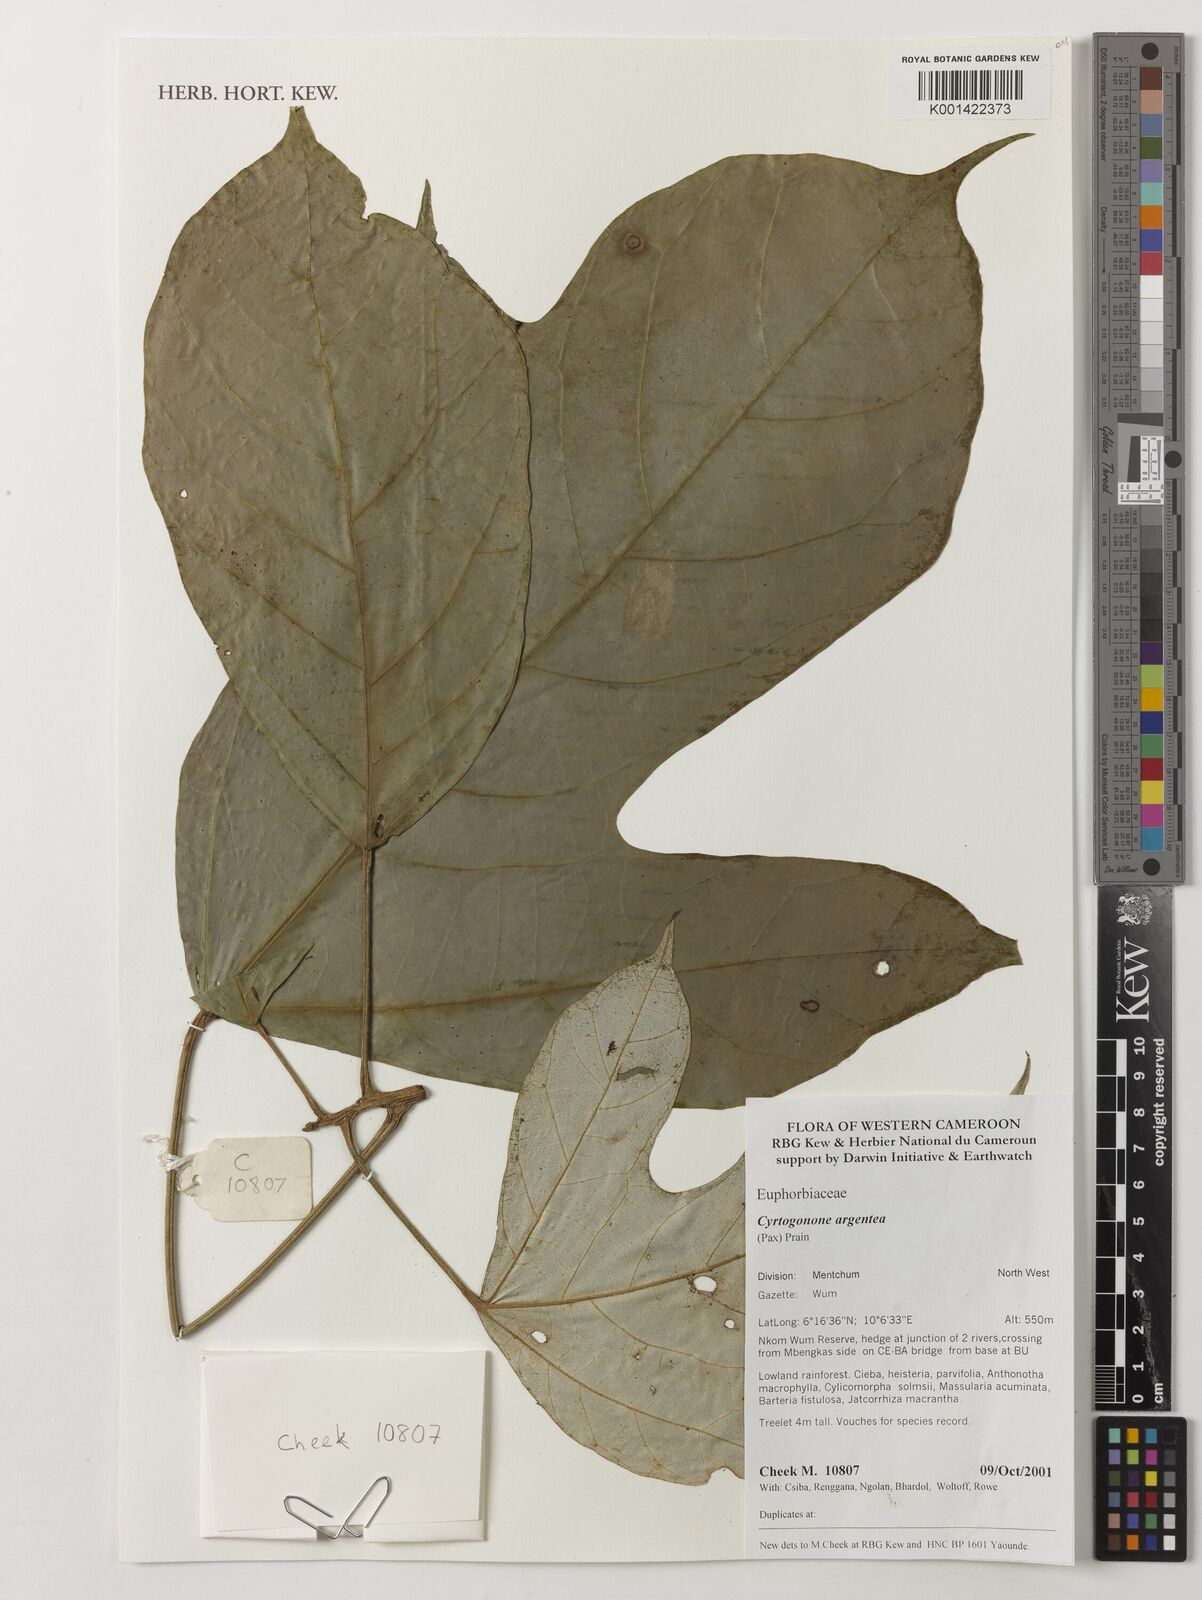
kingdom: Plantae
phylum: Tracheophyta
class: Magnoliopsida
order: Malpighiales
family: Euphorbiaceae
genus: Cyrtogonone
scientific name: Cyrtogonone argentea
